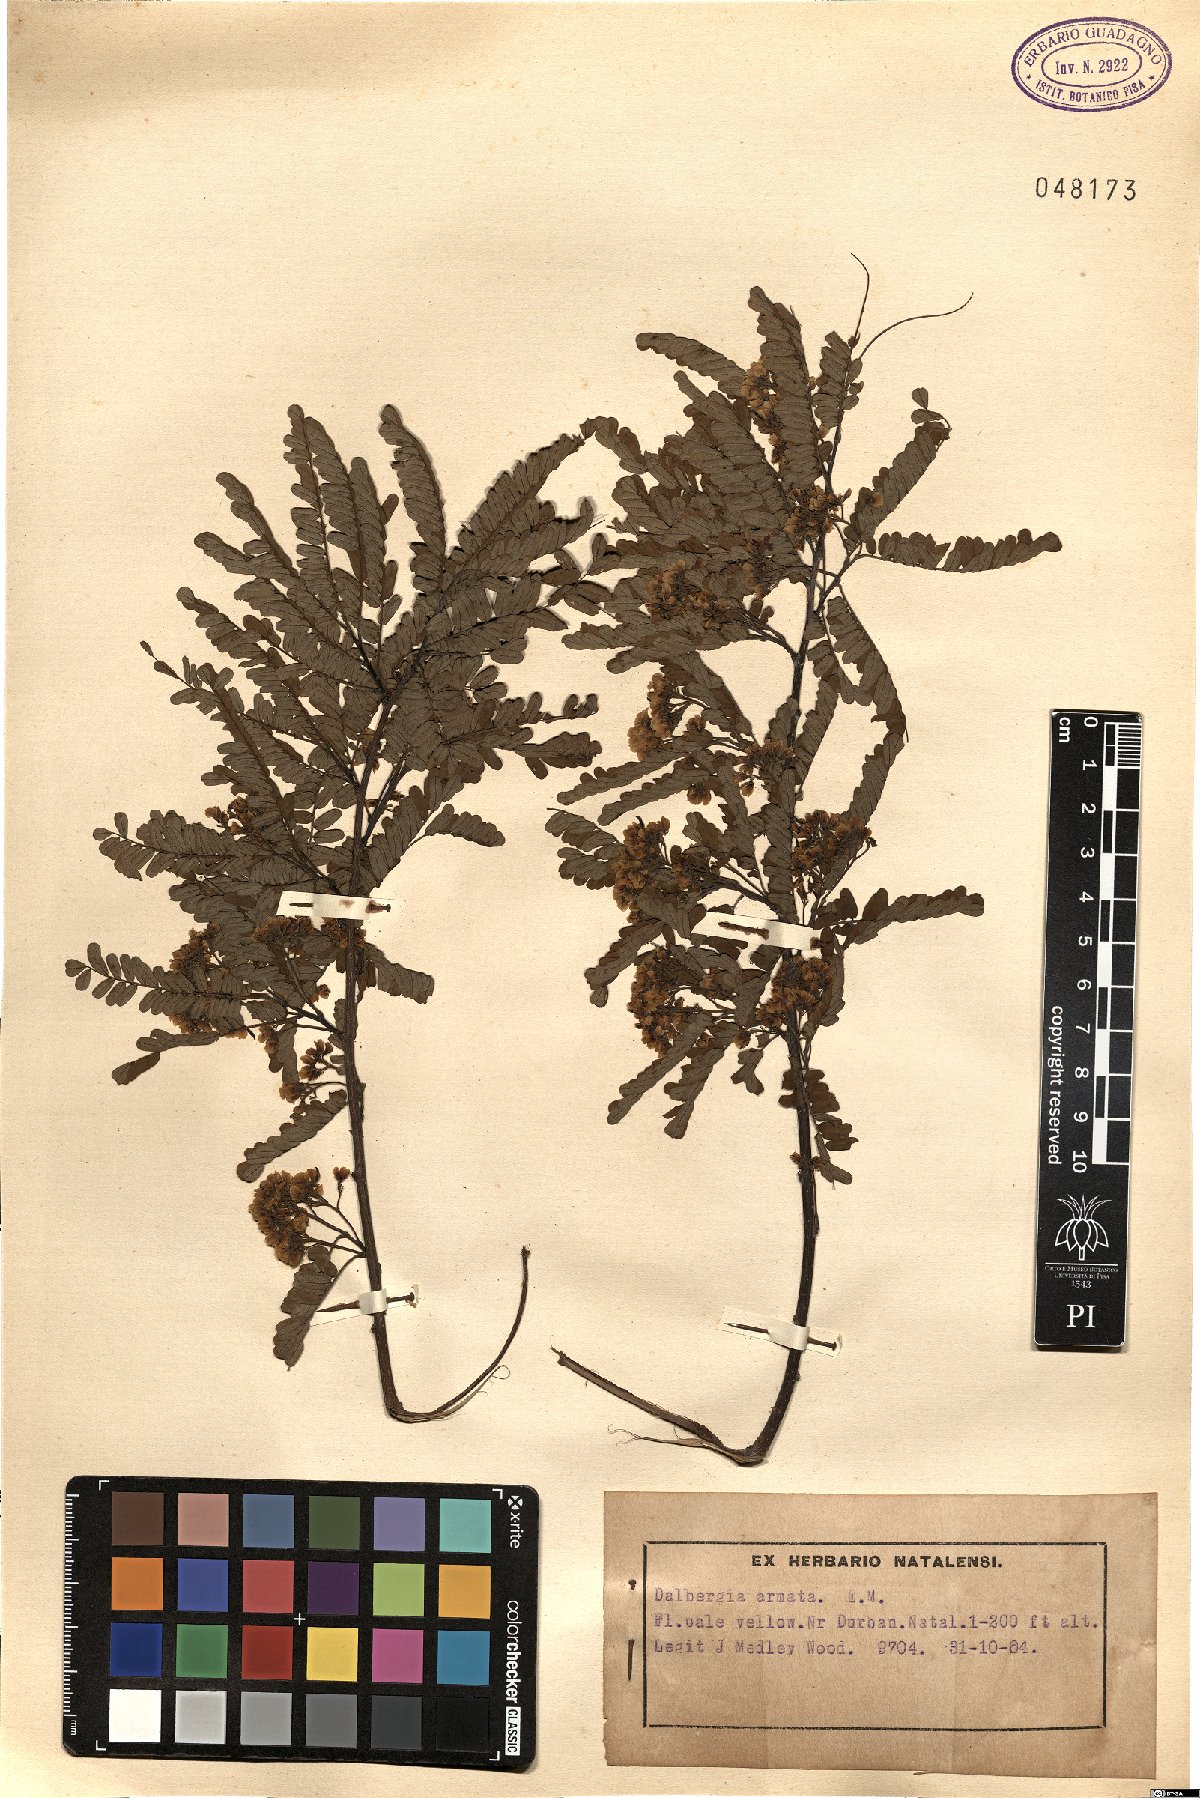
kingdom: Plantae
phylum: Tracheophyta
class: Magnoliopsida
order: Fabales
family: Fabaceae
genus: Dalbergia
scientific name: Dalbergia armata
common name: Hluhluwe climber
